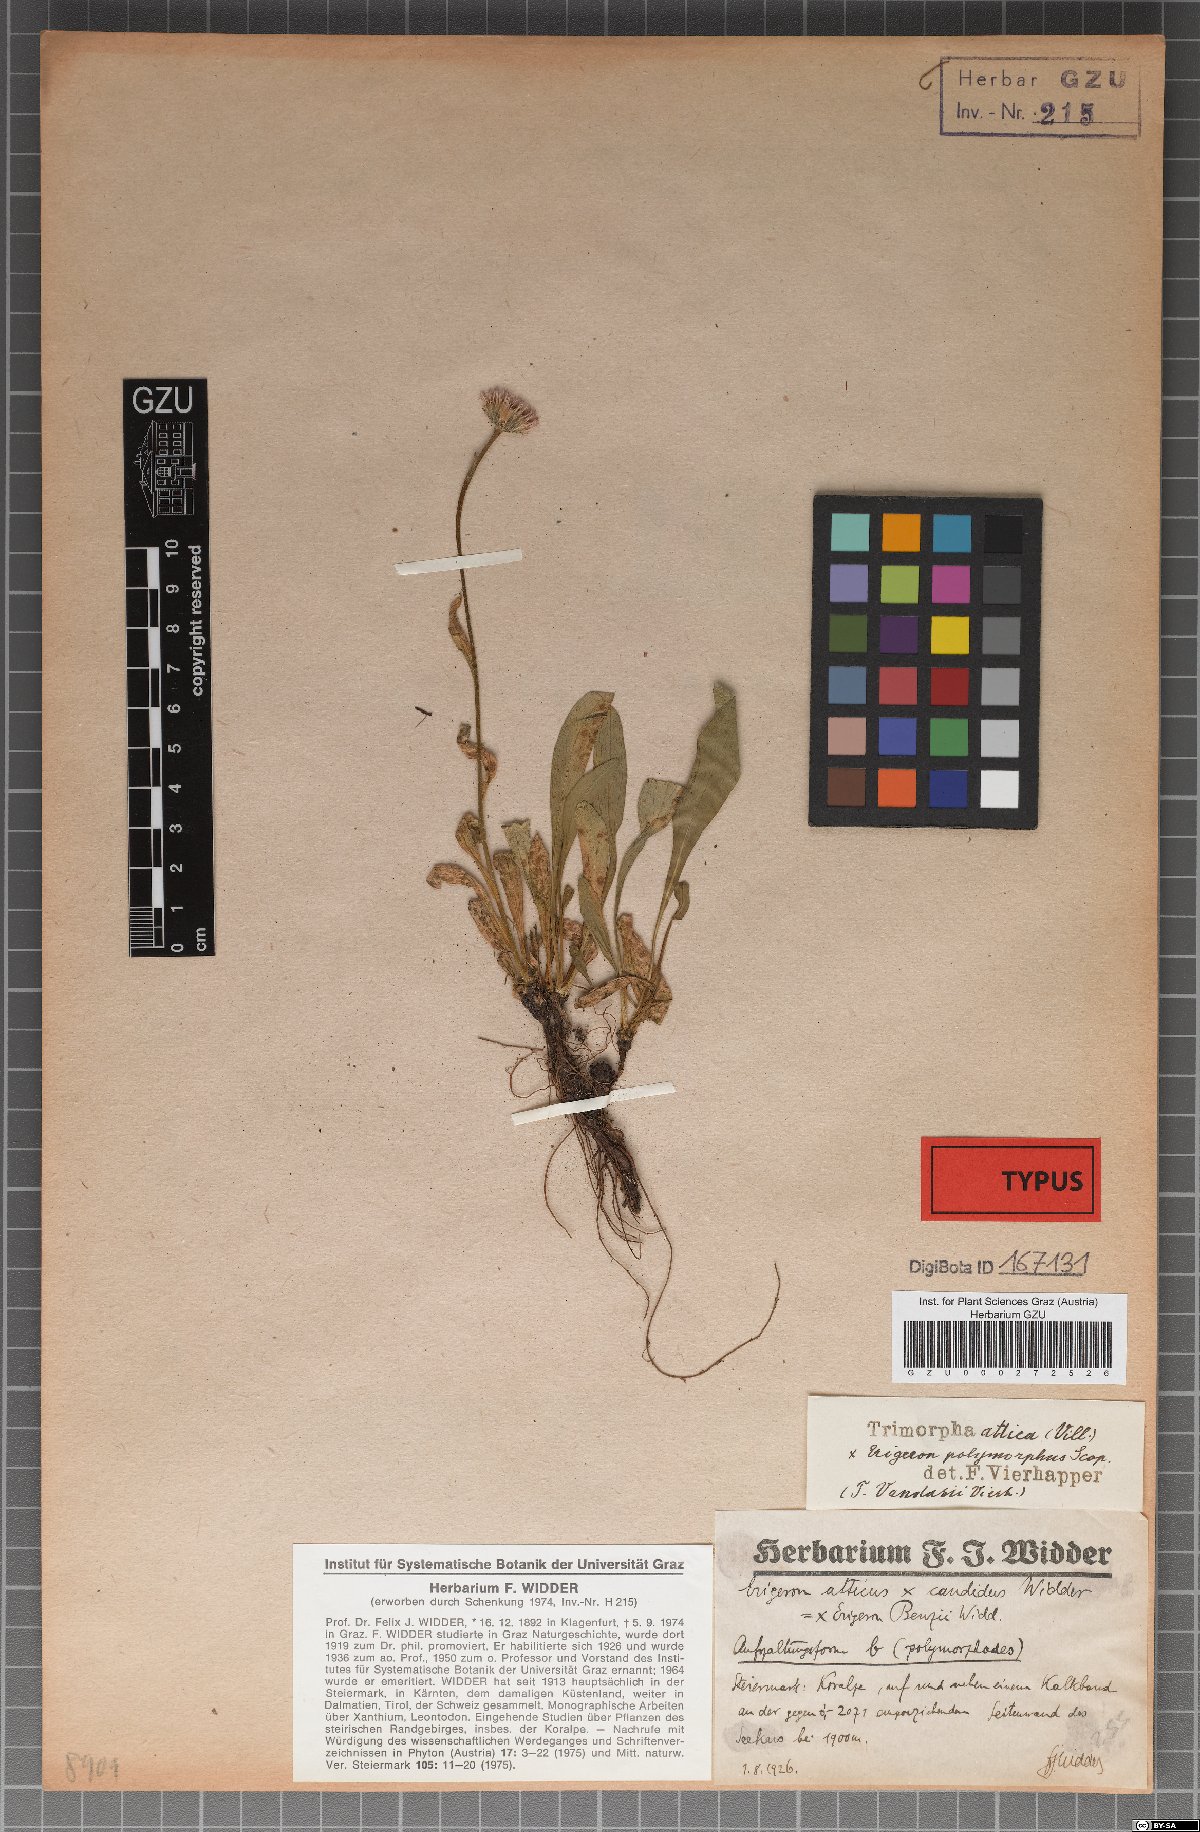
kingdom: Plantae
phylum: Tracheophyta
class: Magnoliopsida
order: Asterales
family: Asteraceae
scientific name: Asteraceae
